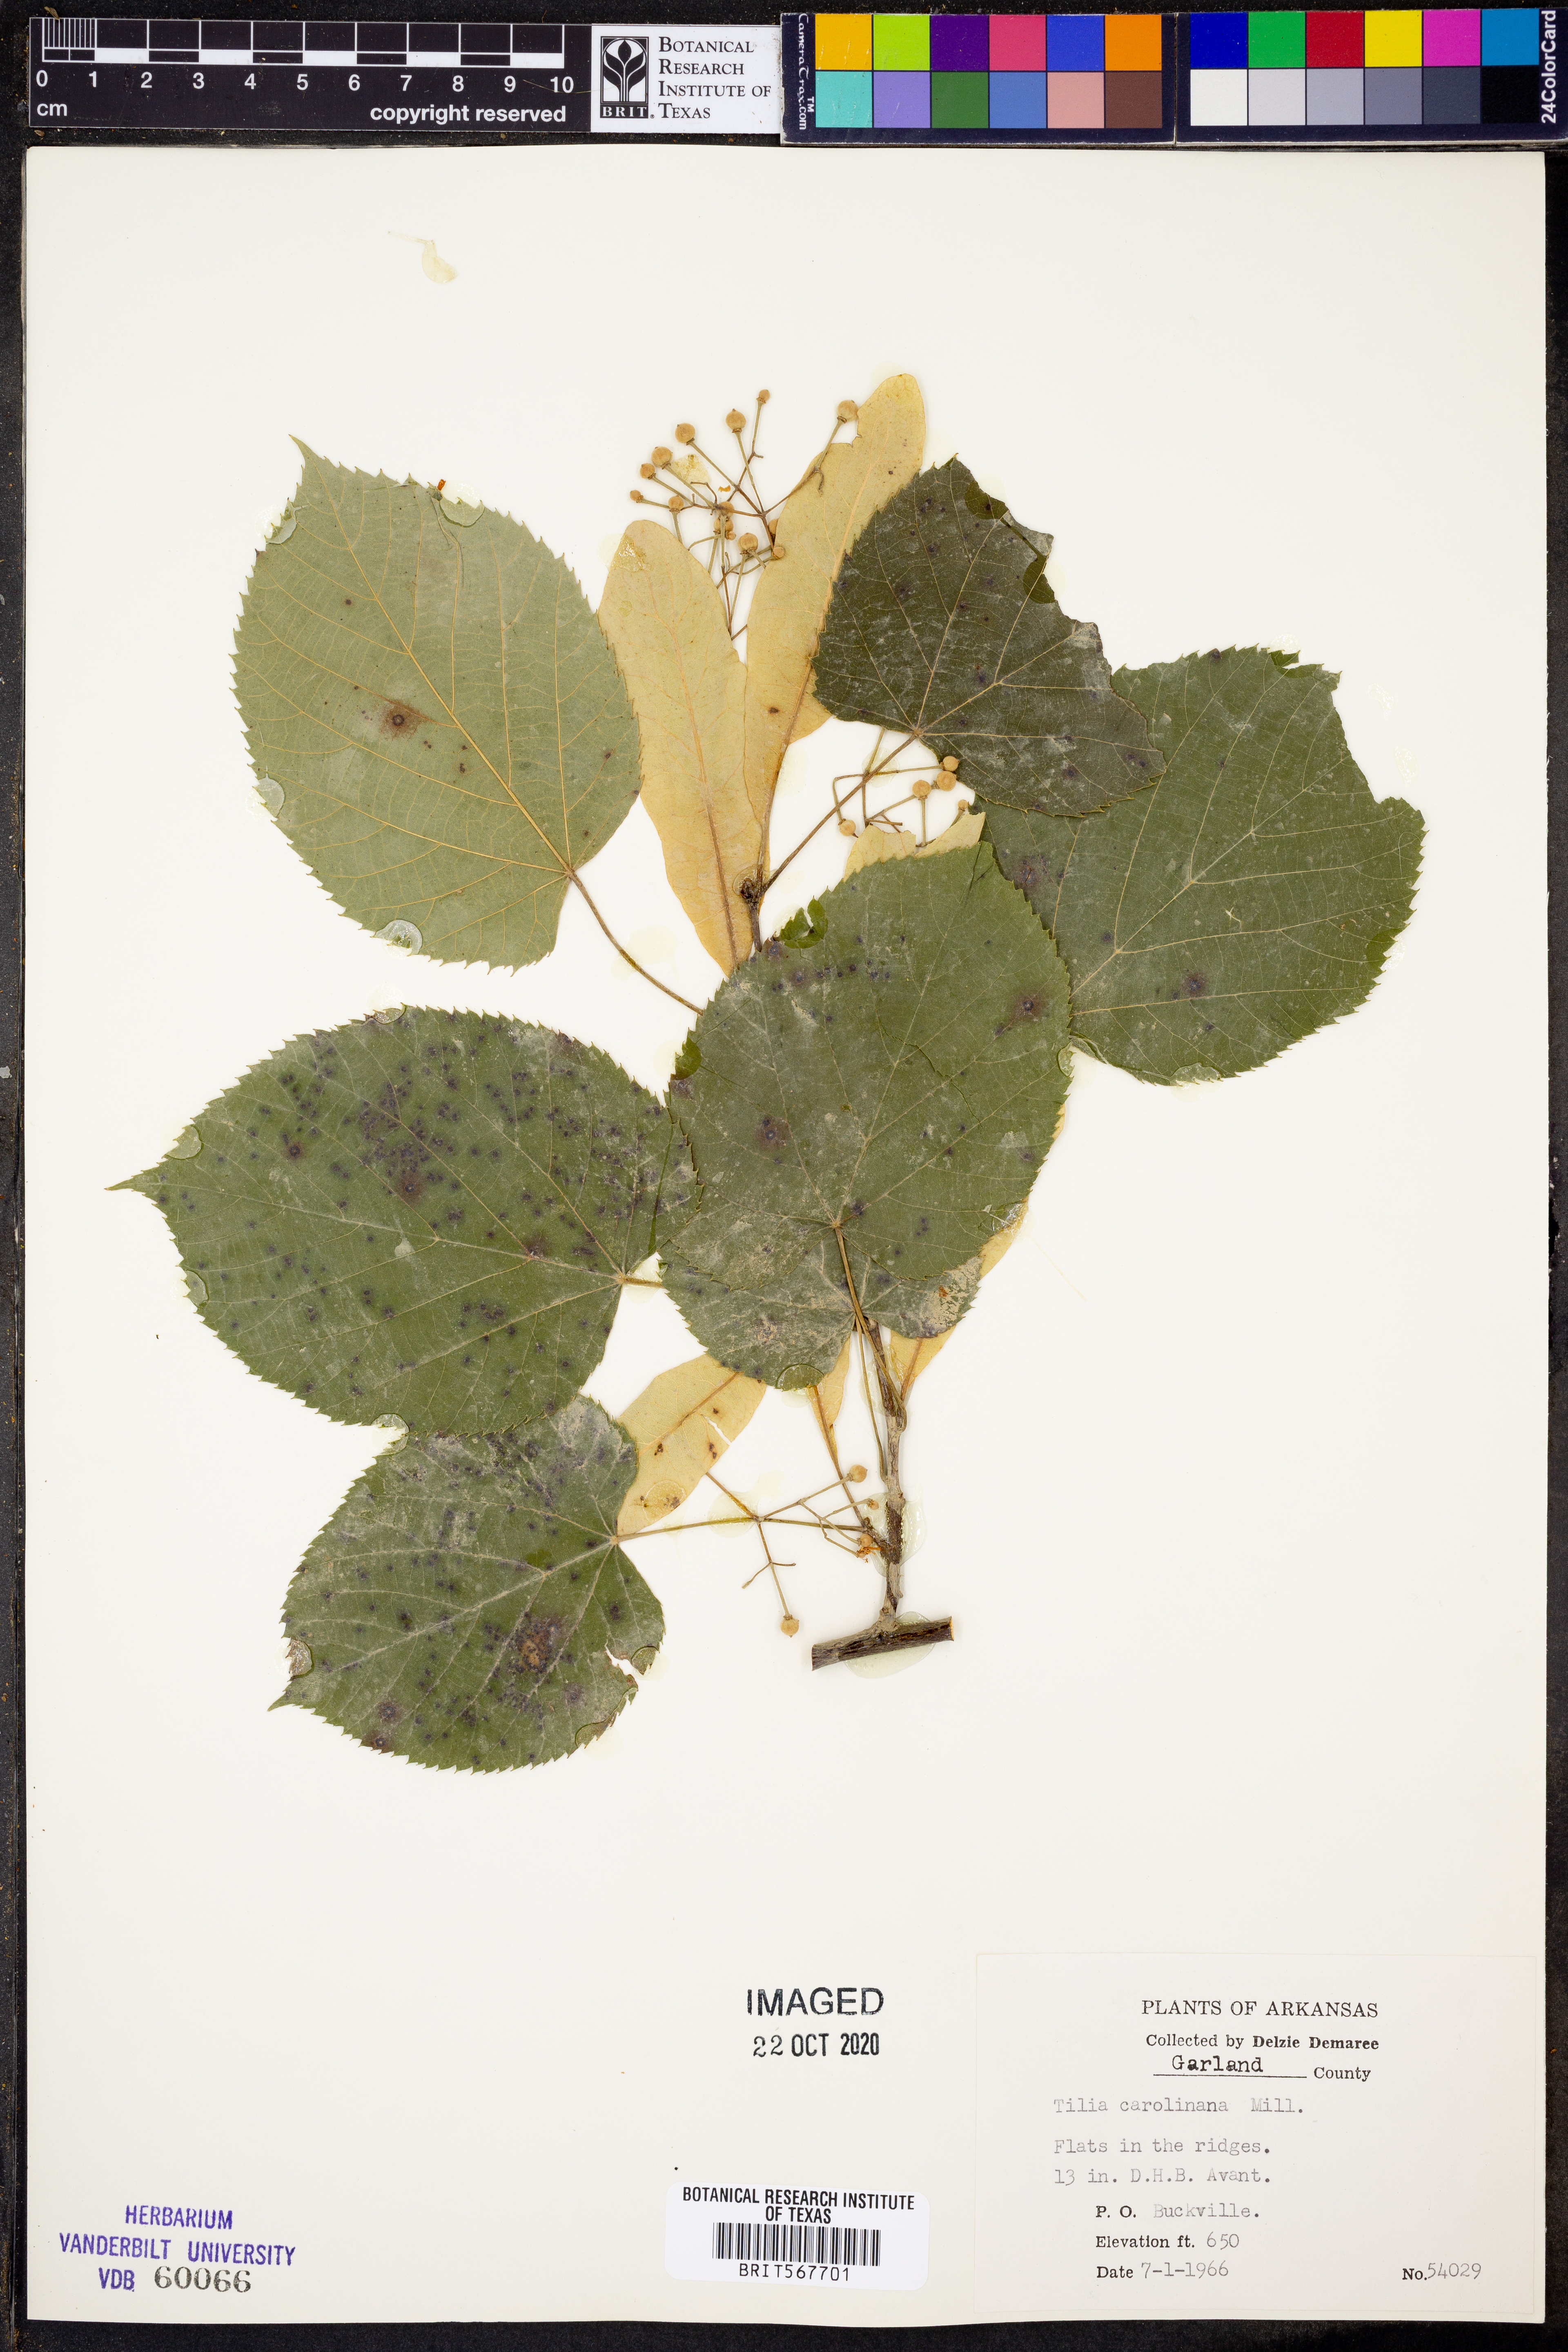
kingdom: Plantae
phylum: Tracheophyta
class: Magnoliopsida
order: Malvales
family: Malvaceae
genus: Tilia
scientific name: Tilia americana
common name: Basswood
